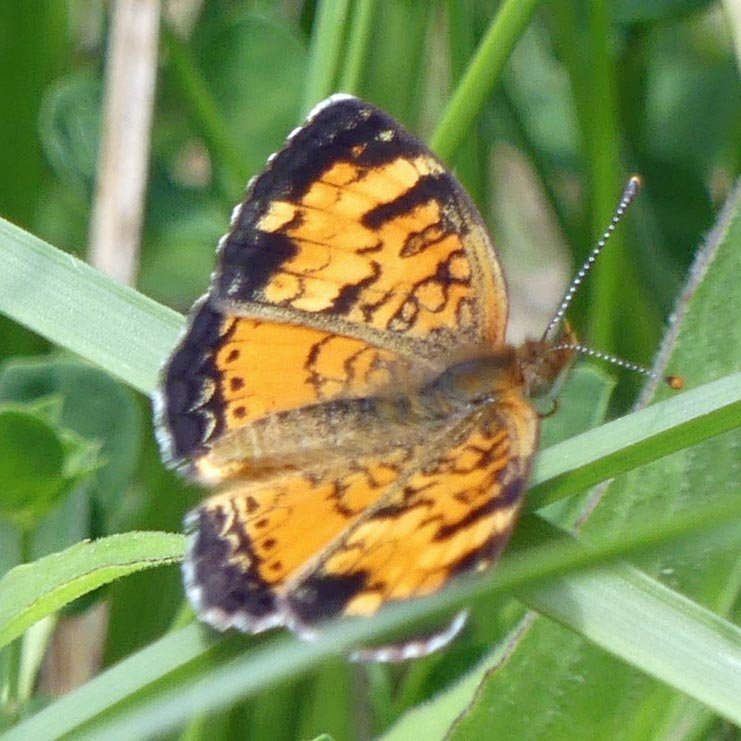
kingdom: Animalia
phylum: Arthropoda
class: Insecta
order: Lepidoptera
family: Nymphalidae
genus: Phyciodes
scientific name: Phyciodes tharos
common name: Northern Crescent
